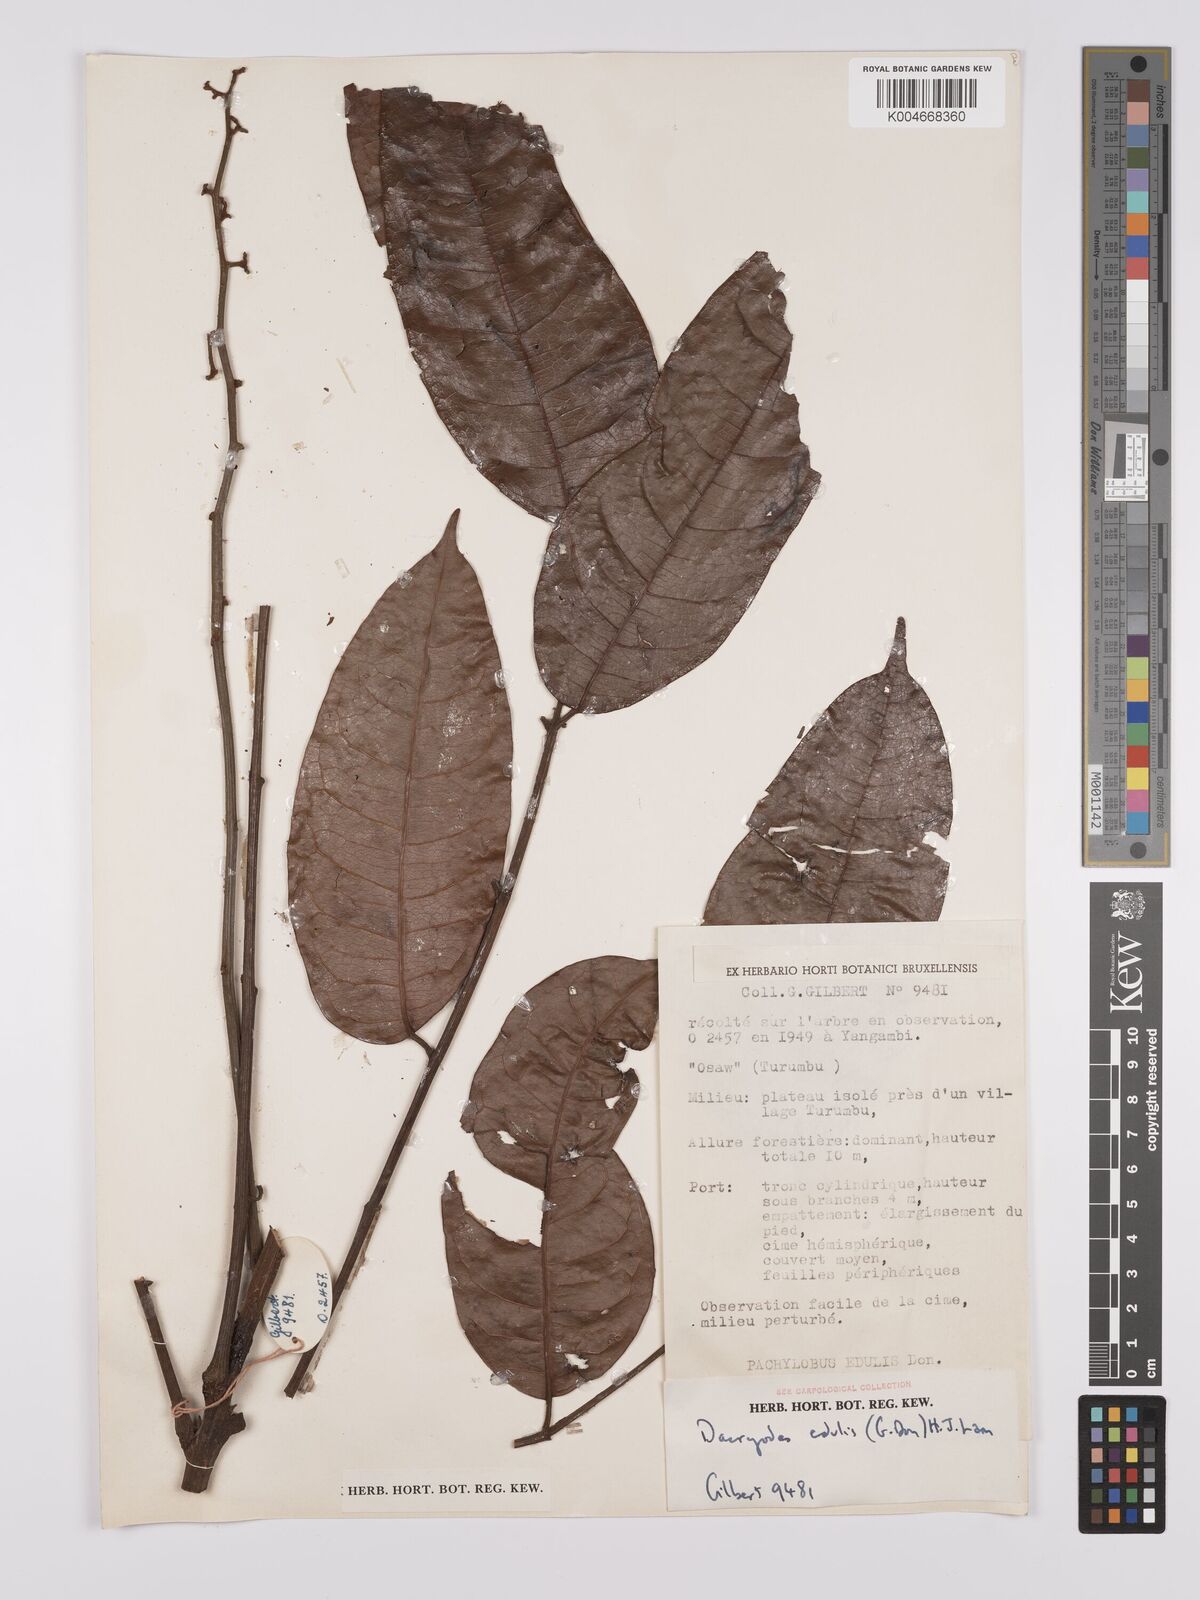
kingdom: Plantae
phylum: Tracheophyta
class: Magnoliopsida
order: Sapindales
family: Burseraceae
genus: Pachylobus
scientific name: Pachylobus edulis
